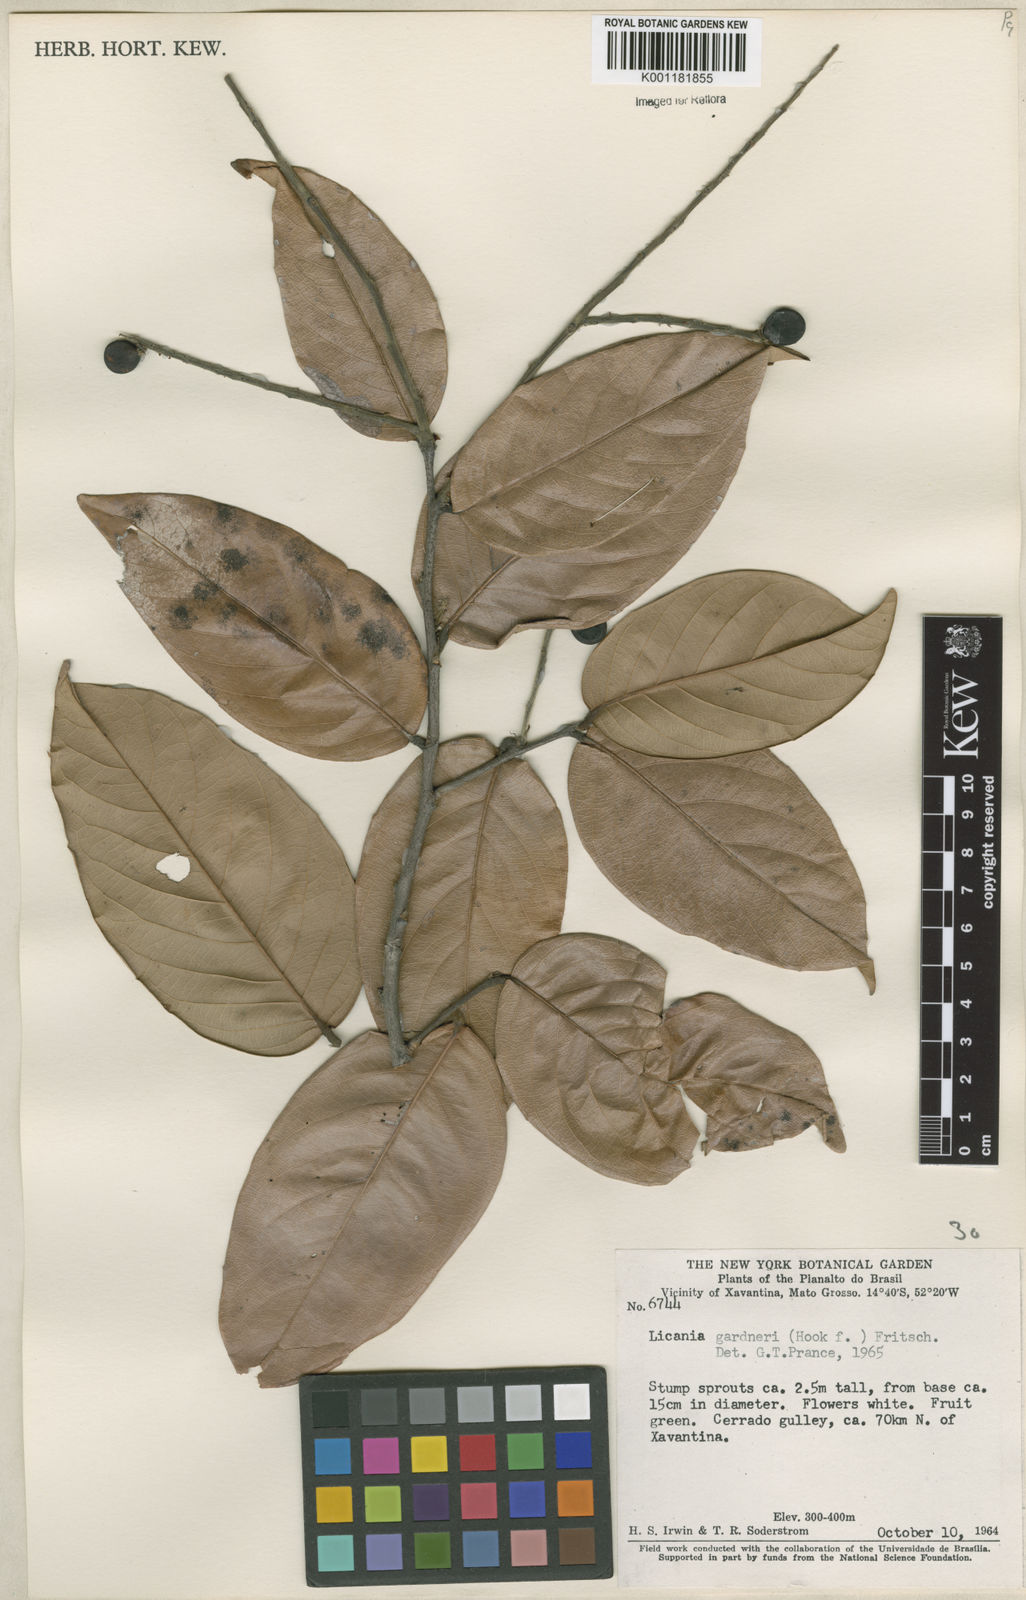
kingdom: Plantae
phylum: Tracheophyta
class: Magnoliopsida
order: Malpighiales
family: Chrysobalanaceae
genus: Leptobalanus
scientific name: Leptobalanus gardneri
